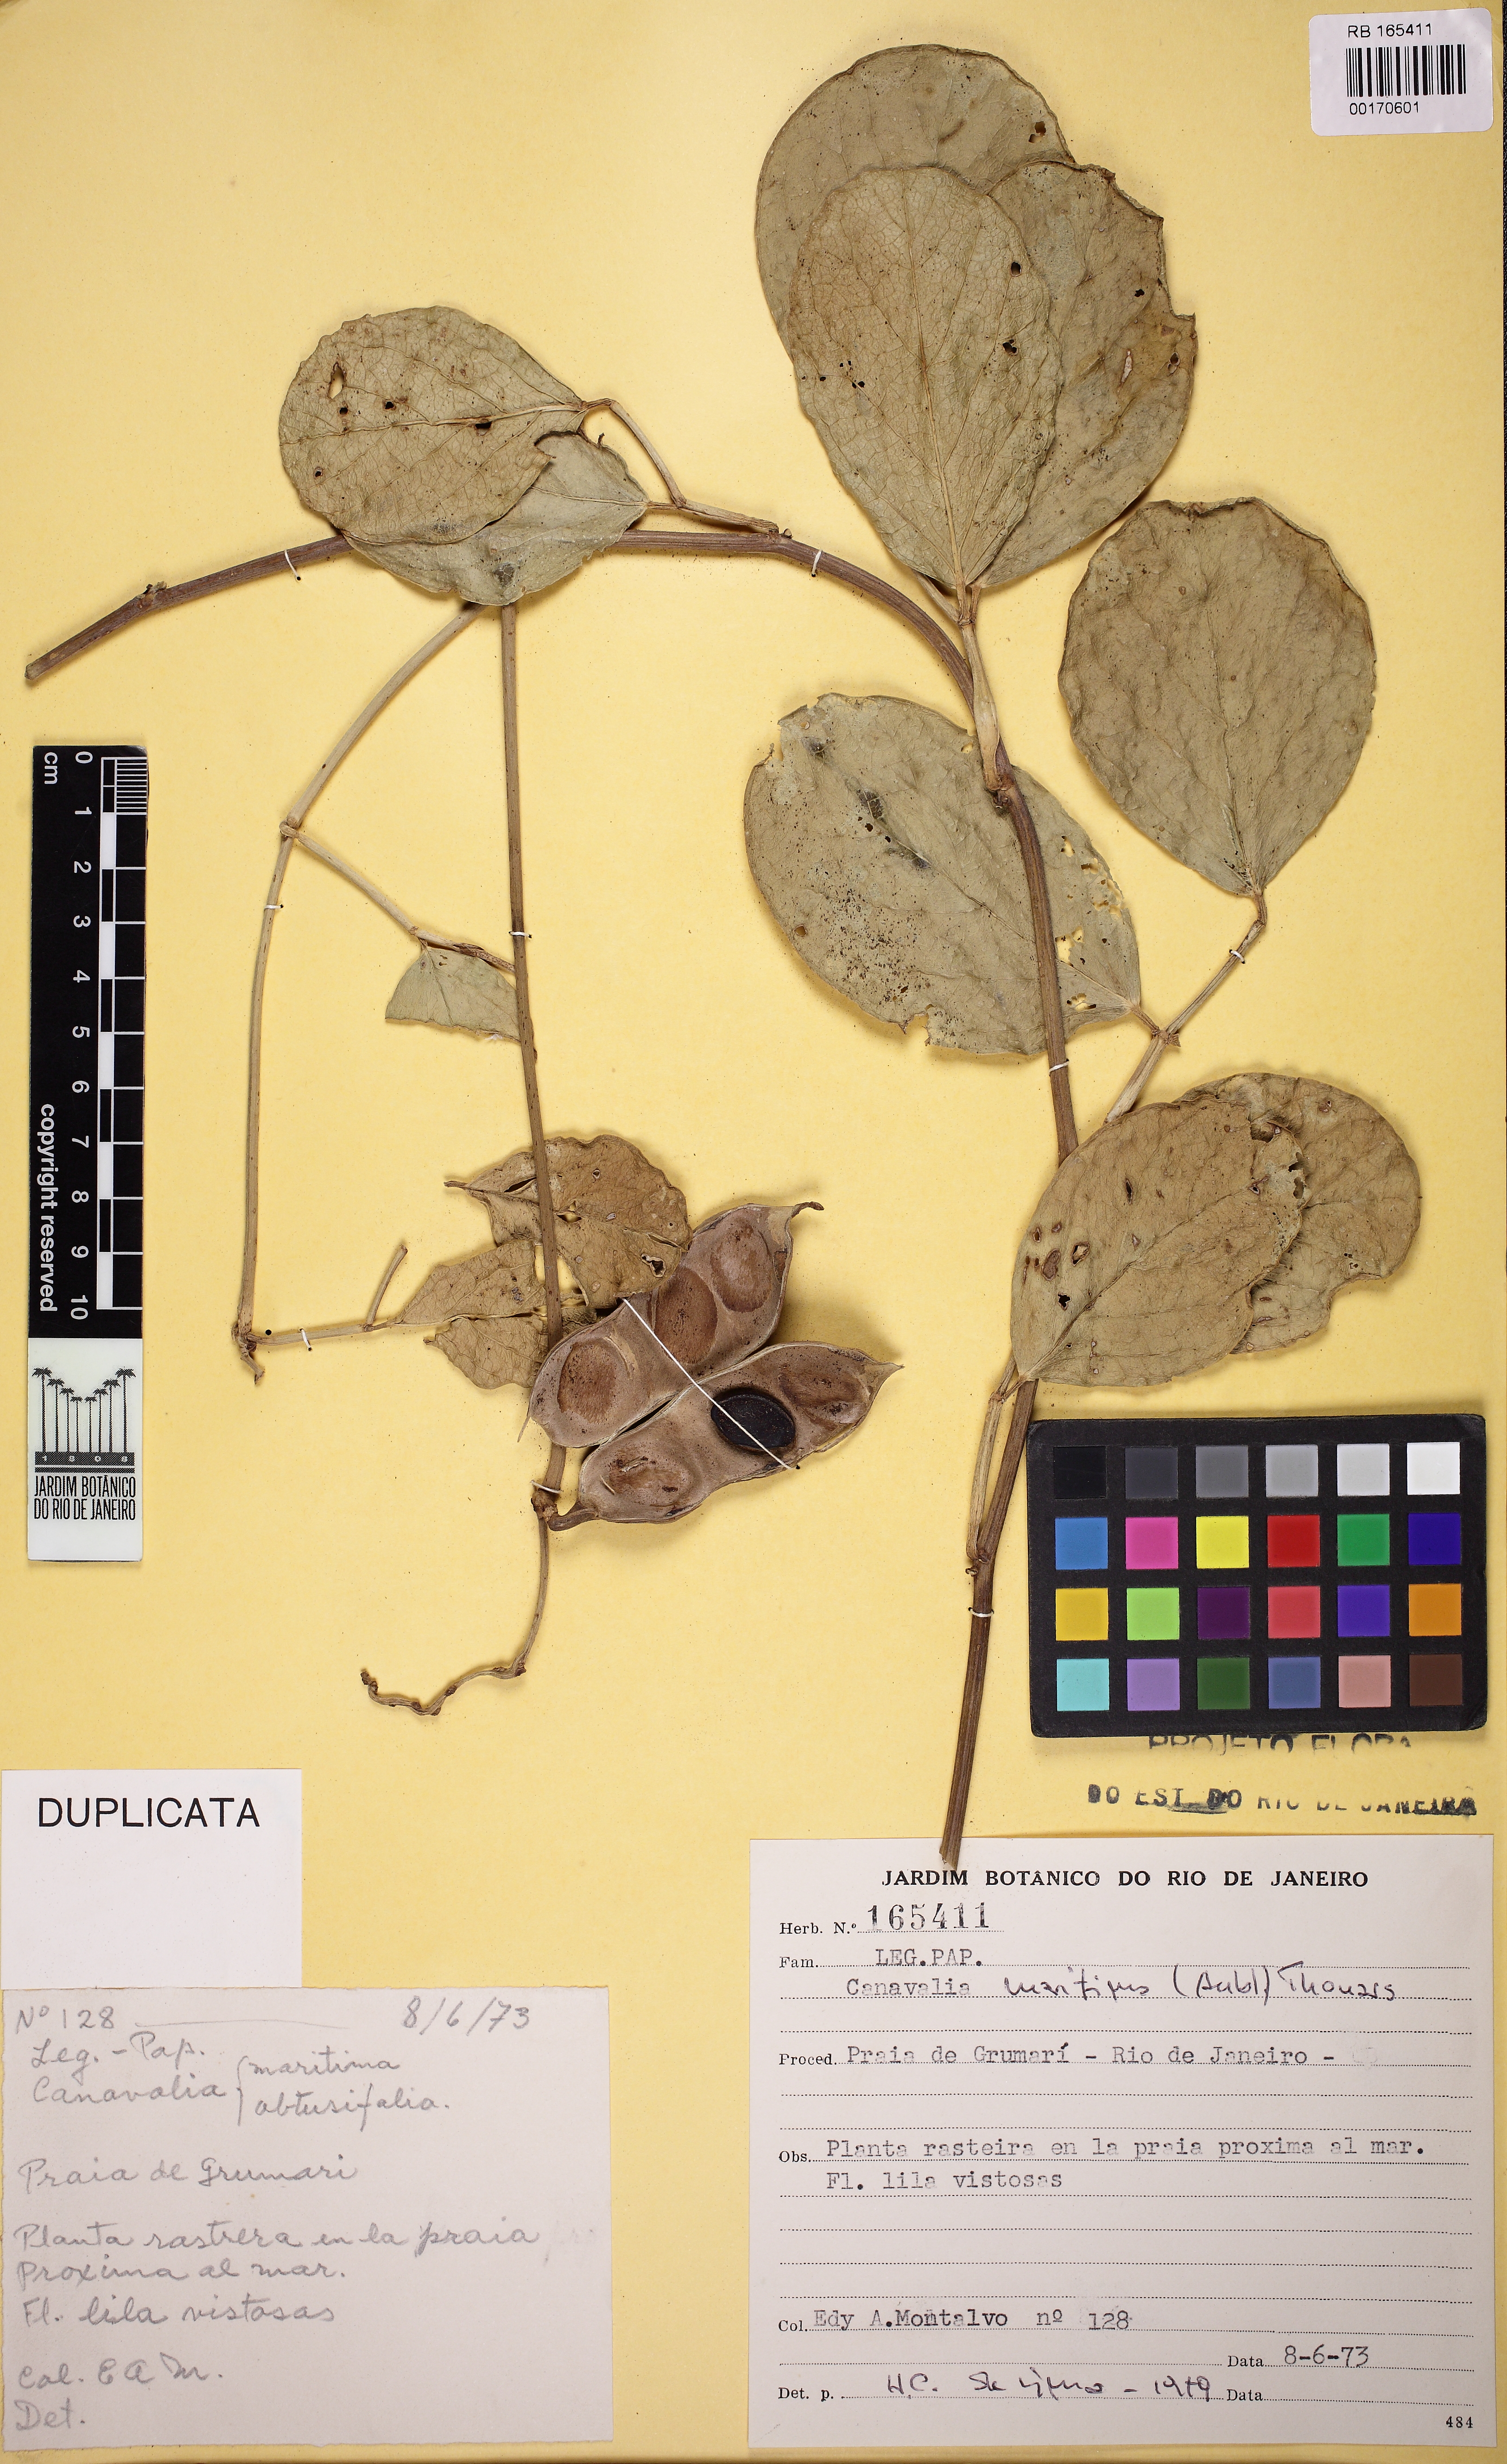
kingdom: Plantae
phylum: Tracheophyta
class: Magnoliopsida
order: Fabales
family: Fabaceae
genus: Canavalia
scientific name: Canavalia rosea
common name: Beach-bean
